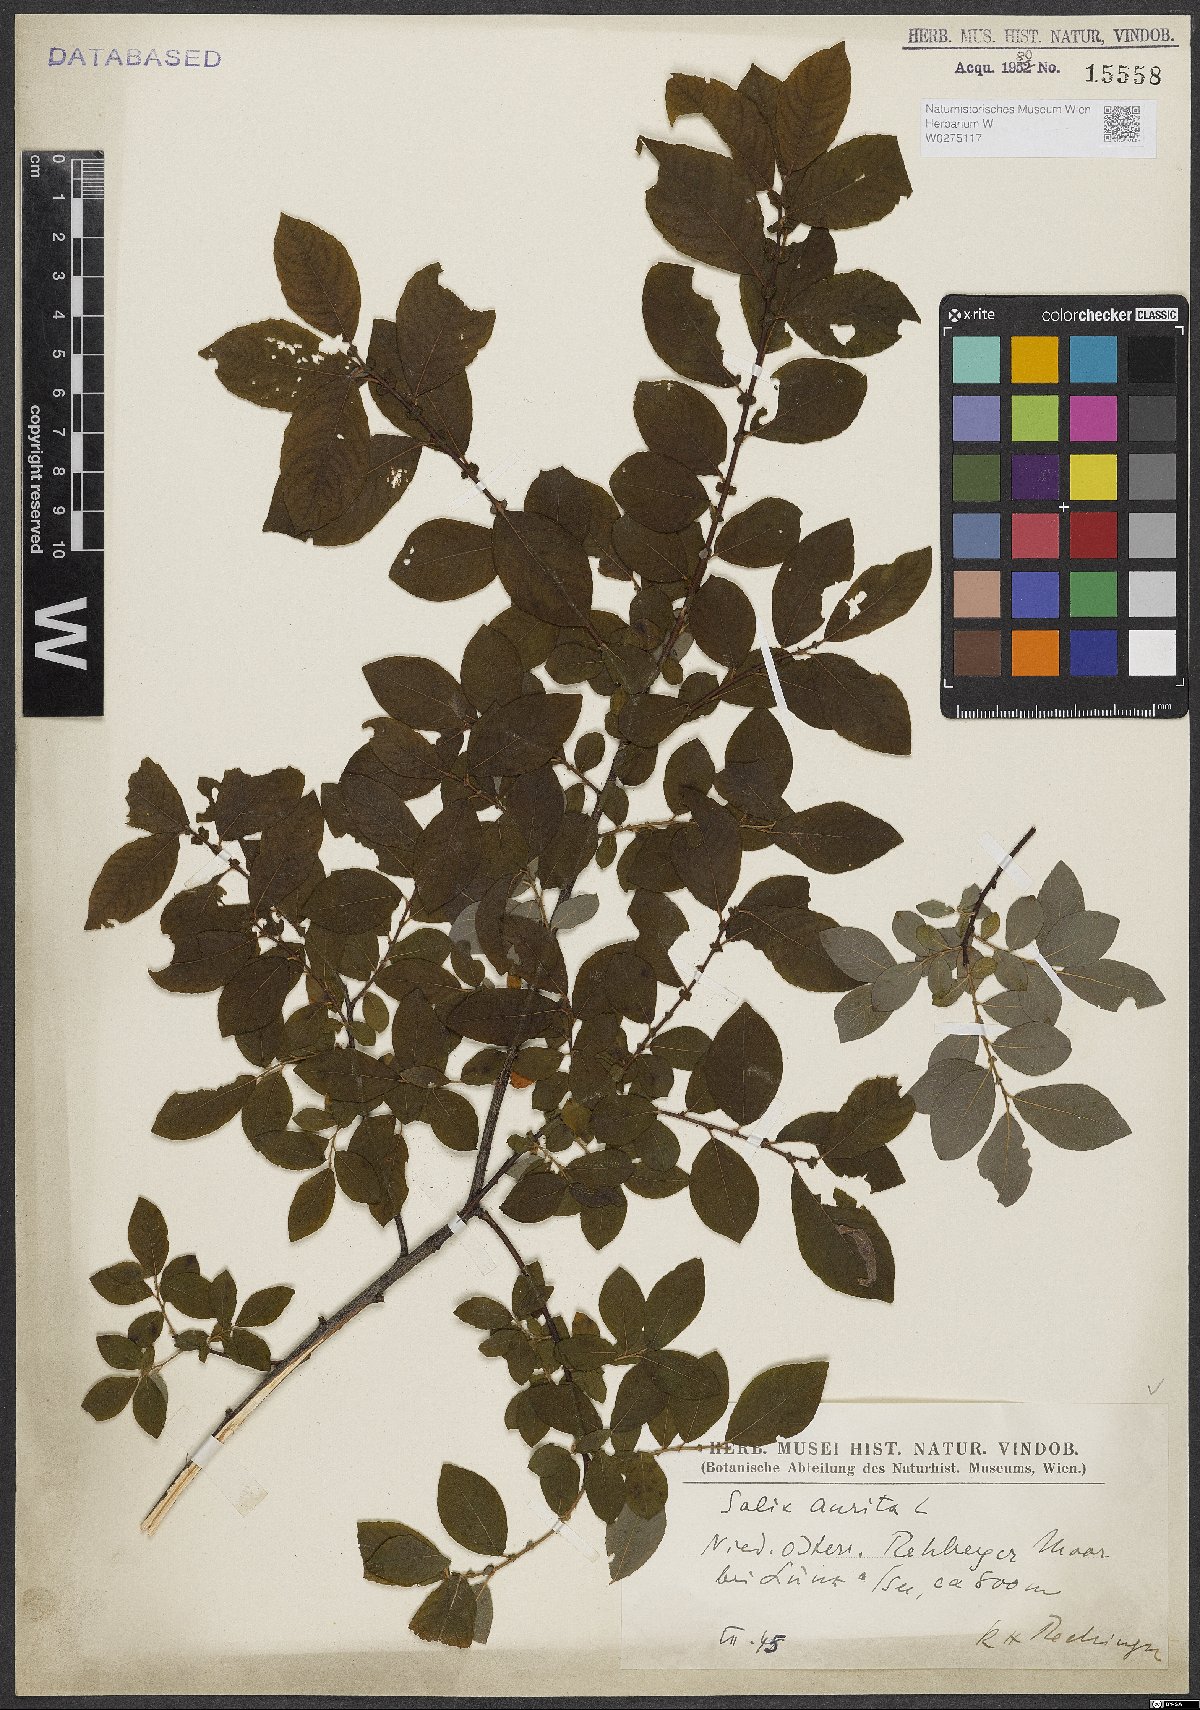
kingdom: Plantae
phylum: Tracheophyta
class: Magnoliopsida
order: Malpighiales
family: Salicaceae
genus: Salix
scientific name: Salix aurita
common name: Eared willow
